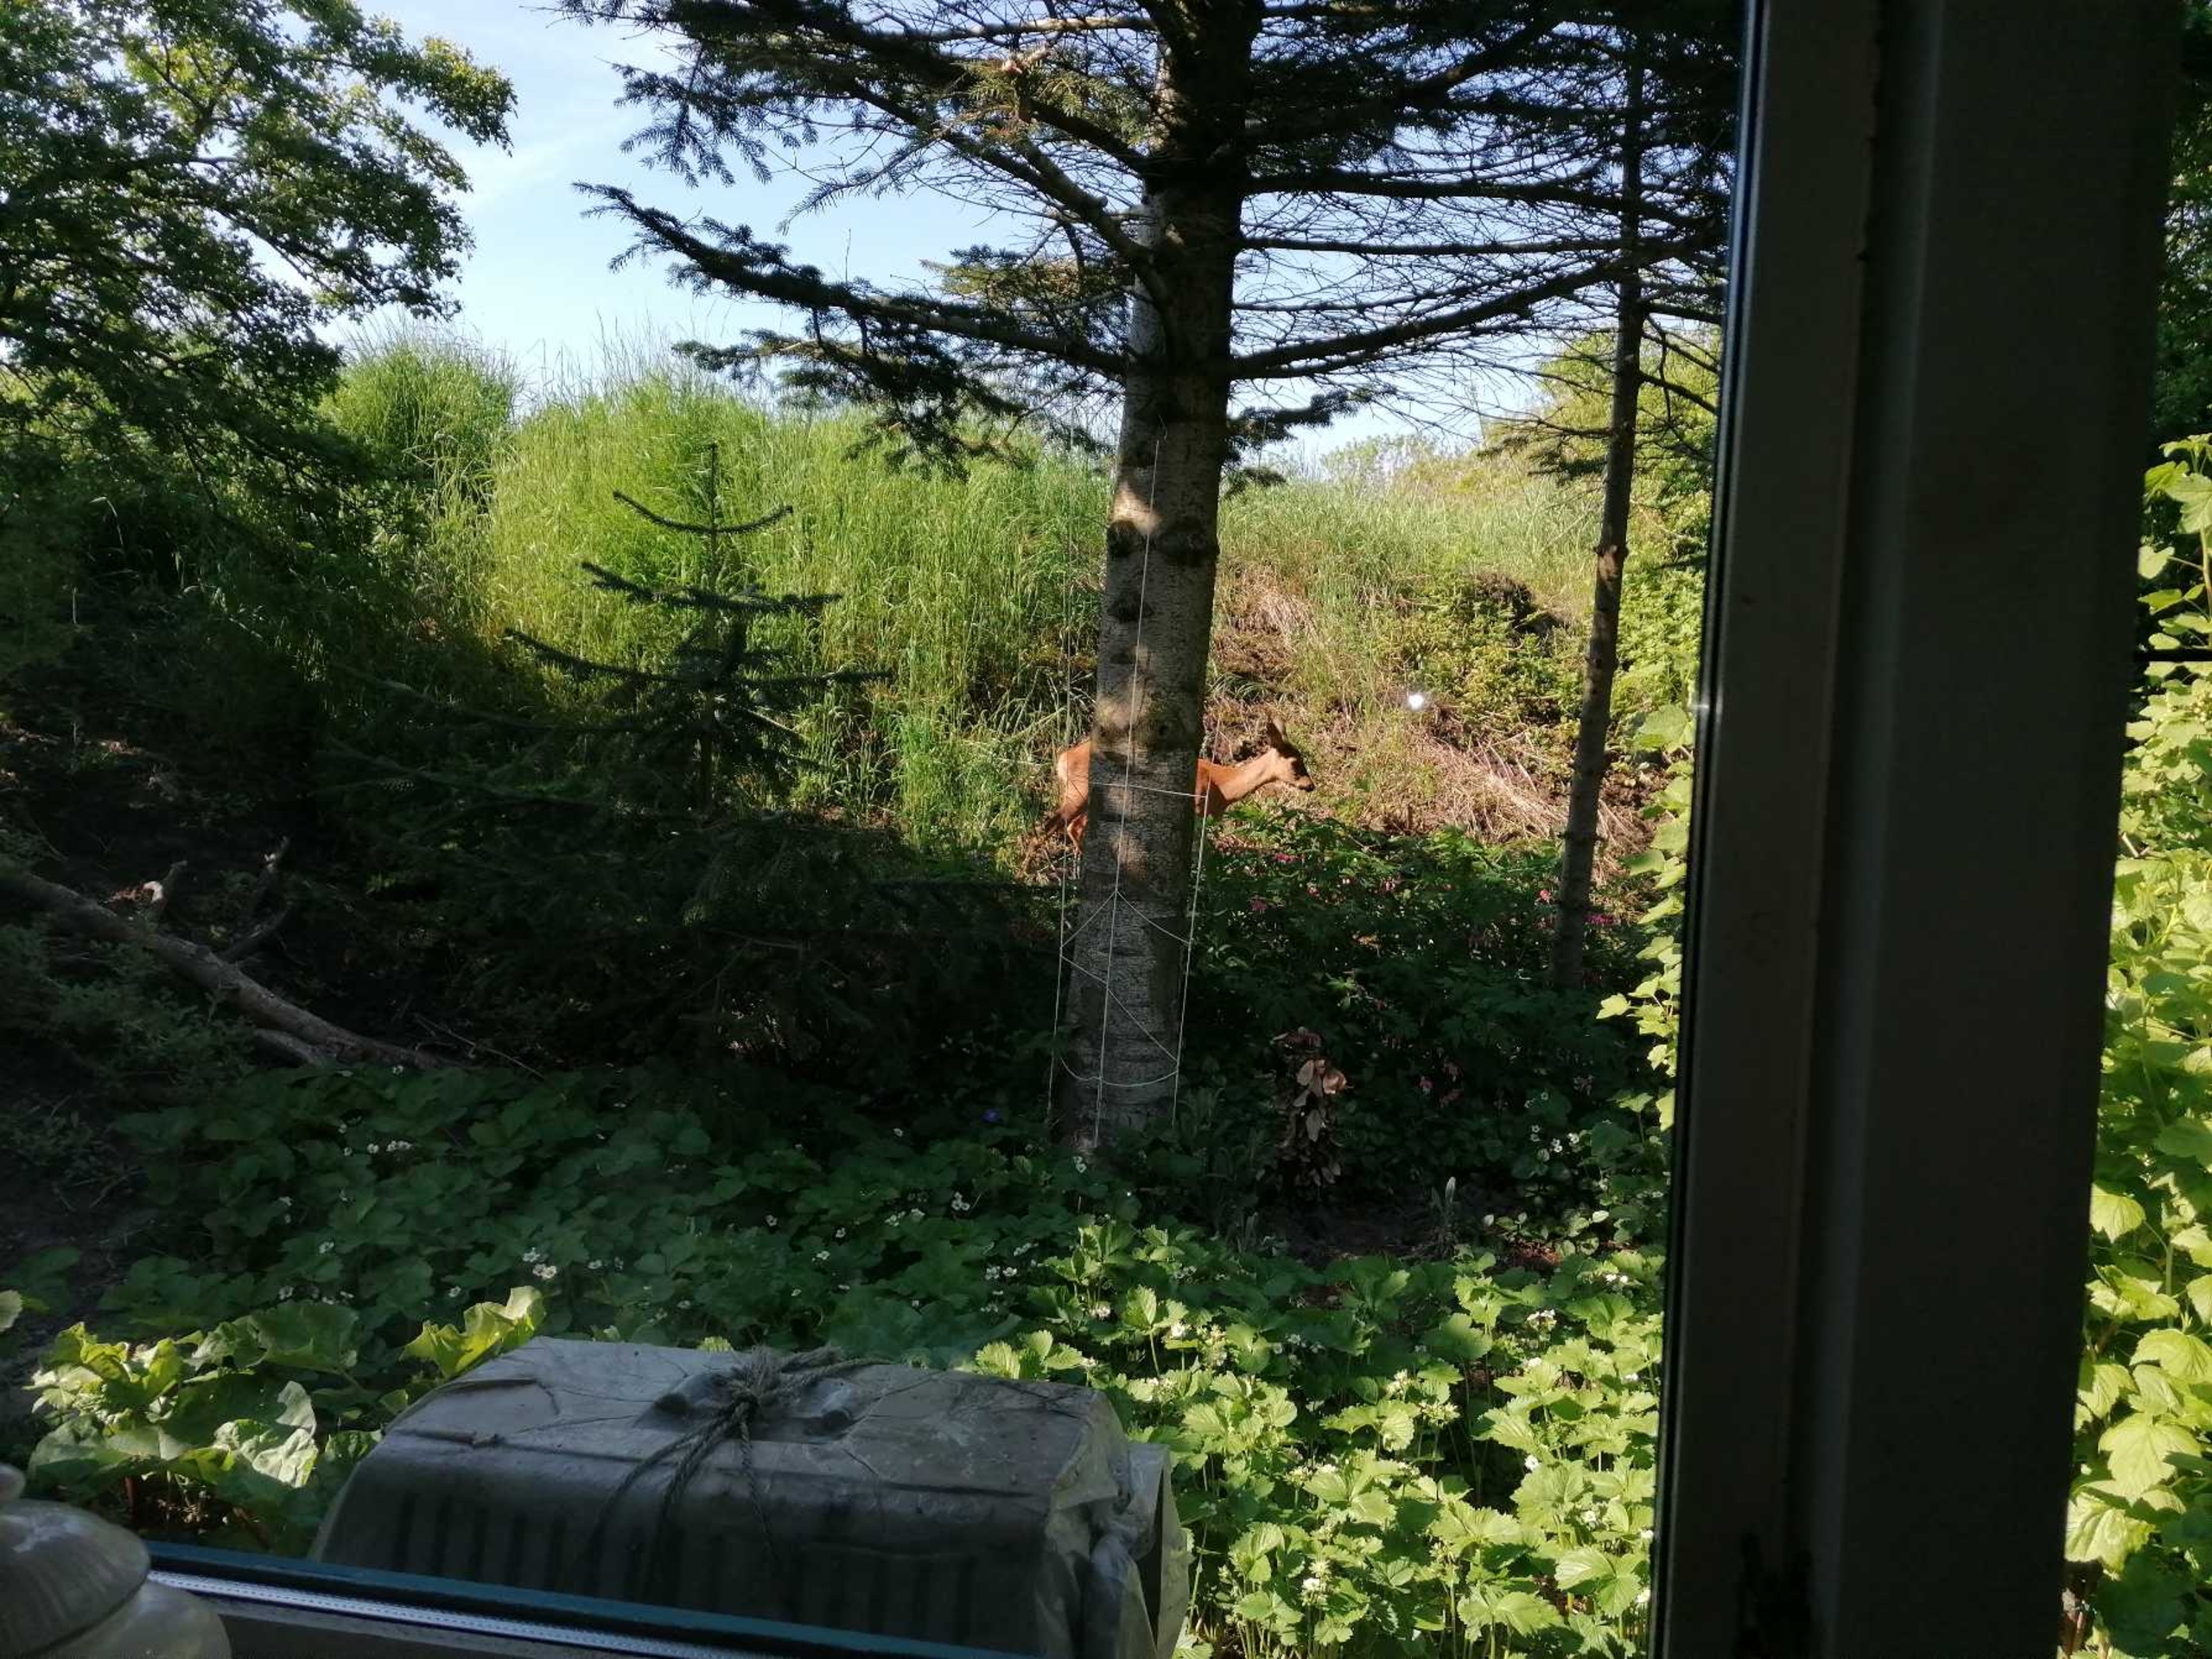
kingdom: Animalia
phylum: Chordata
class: Mammalia
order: Artiodactyla
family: Cervidae
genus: Capreolus
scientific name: Capreolus capreolus
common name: Rådyr
